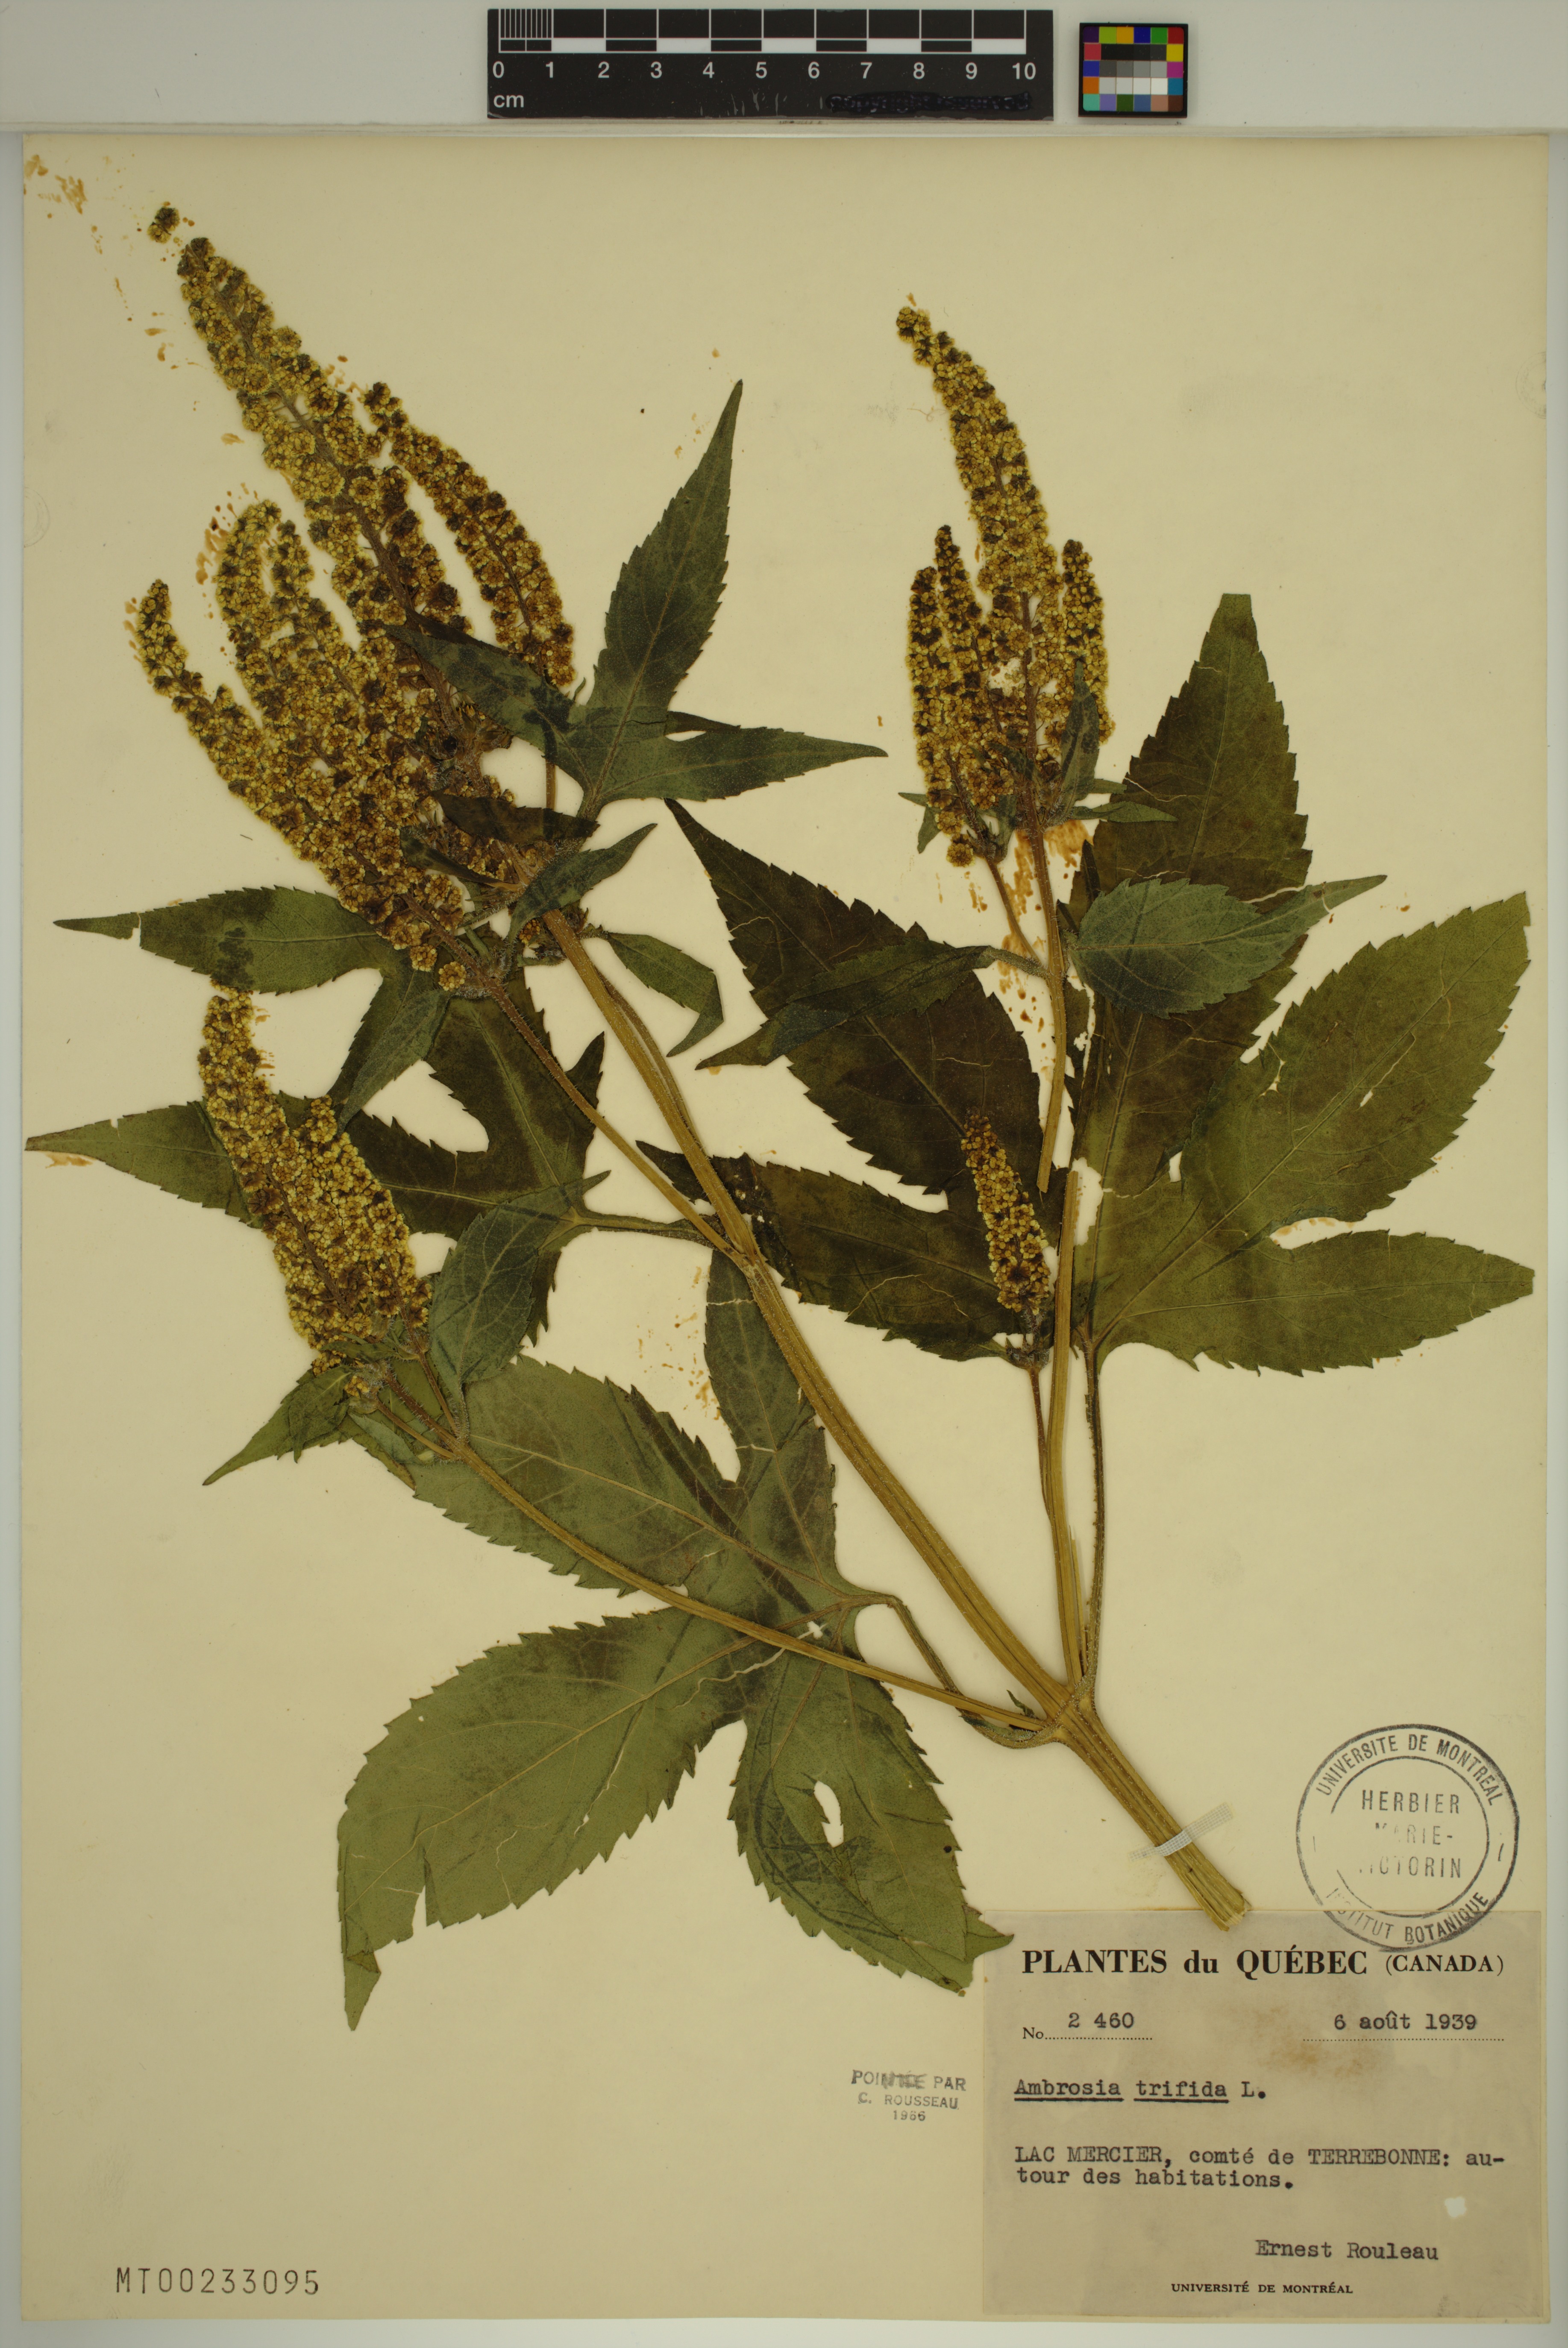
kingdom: Plantae
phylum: Tracheophyta
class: Magnoliopsida
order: Asterales
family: Asteraceae
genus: Ambrosia
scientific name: Ambrosia trifida
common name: Giant ragweed
